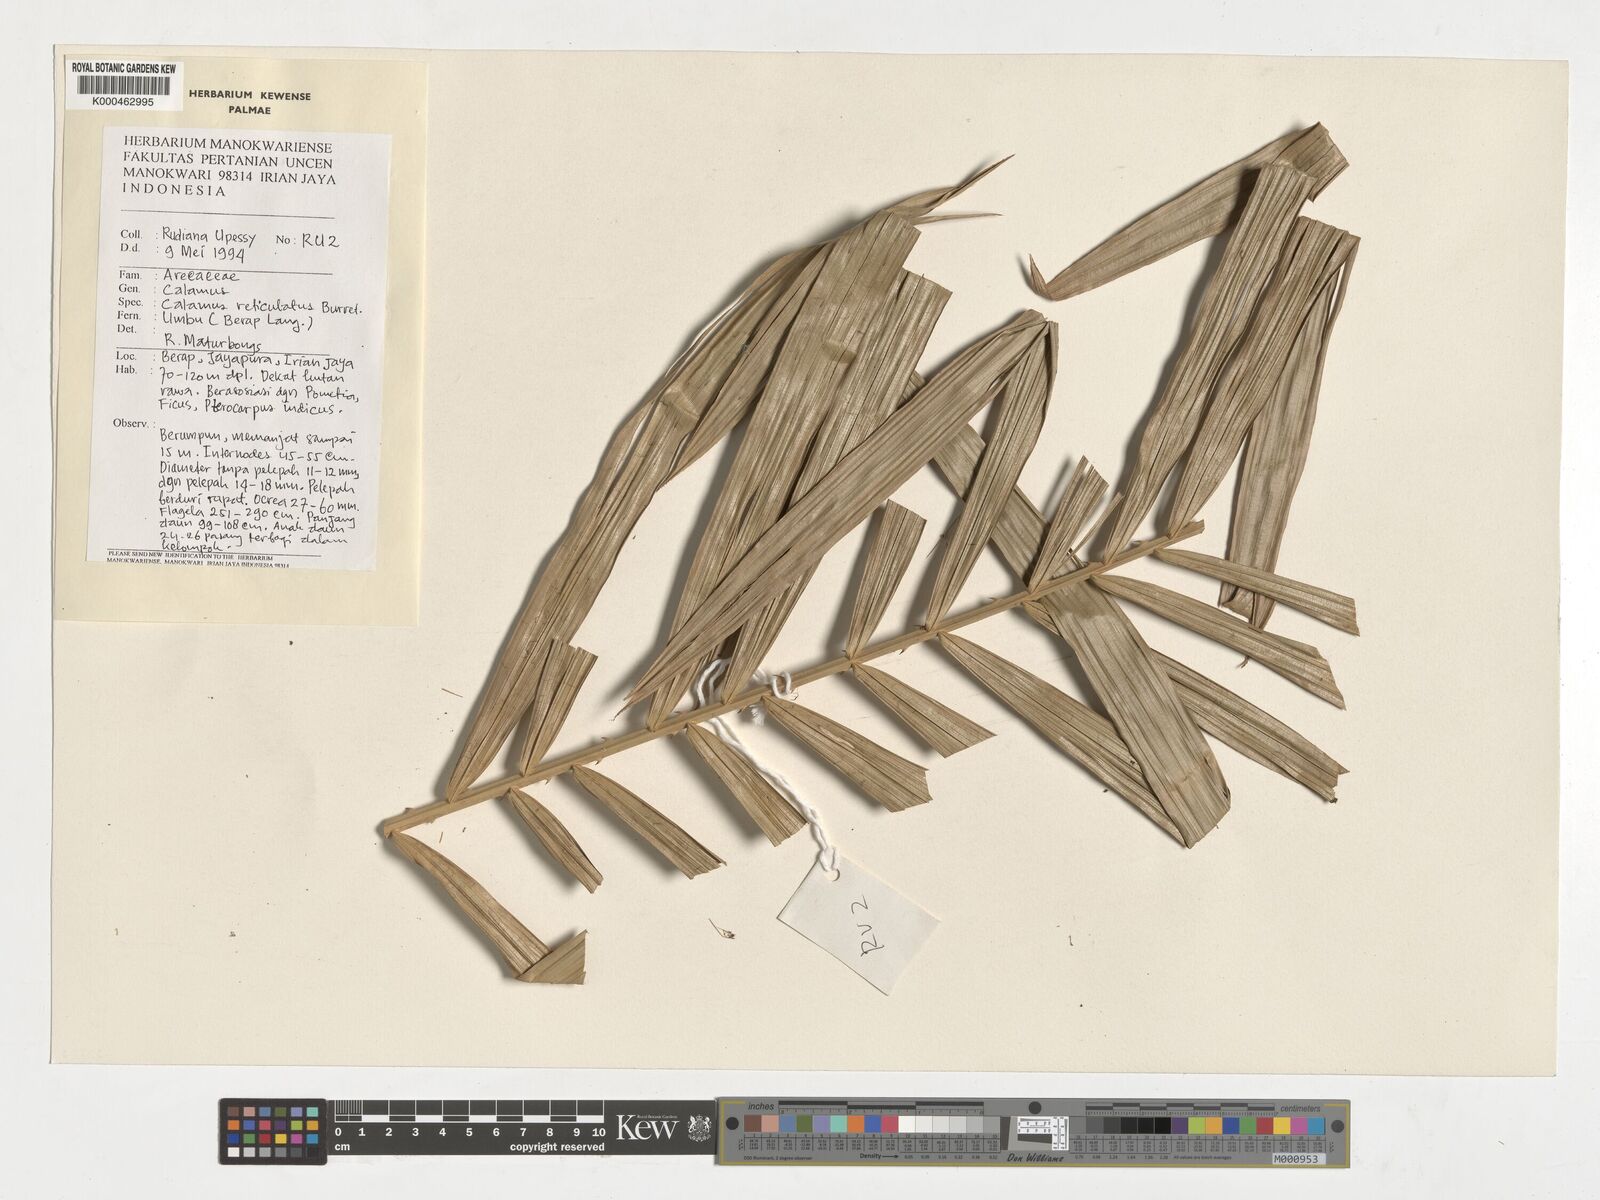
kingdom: Plantae
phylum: Tracheophyta
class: Liliopsida
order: Arecales
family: Arecaceae
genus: Calamus
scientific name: Calamus reticulatus
